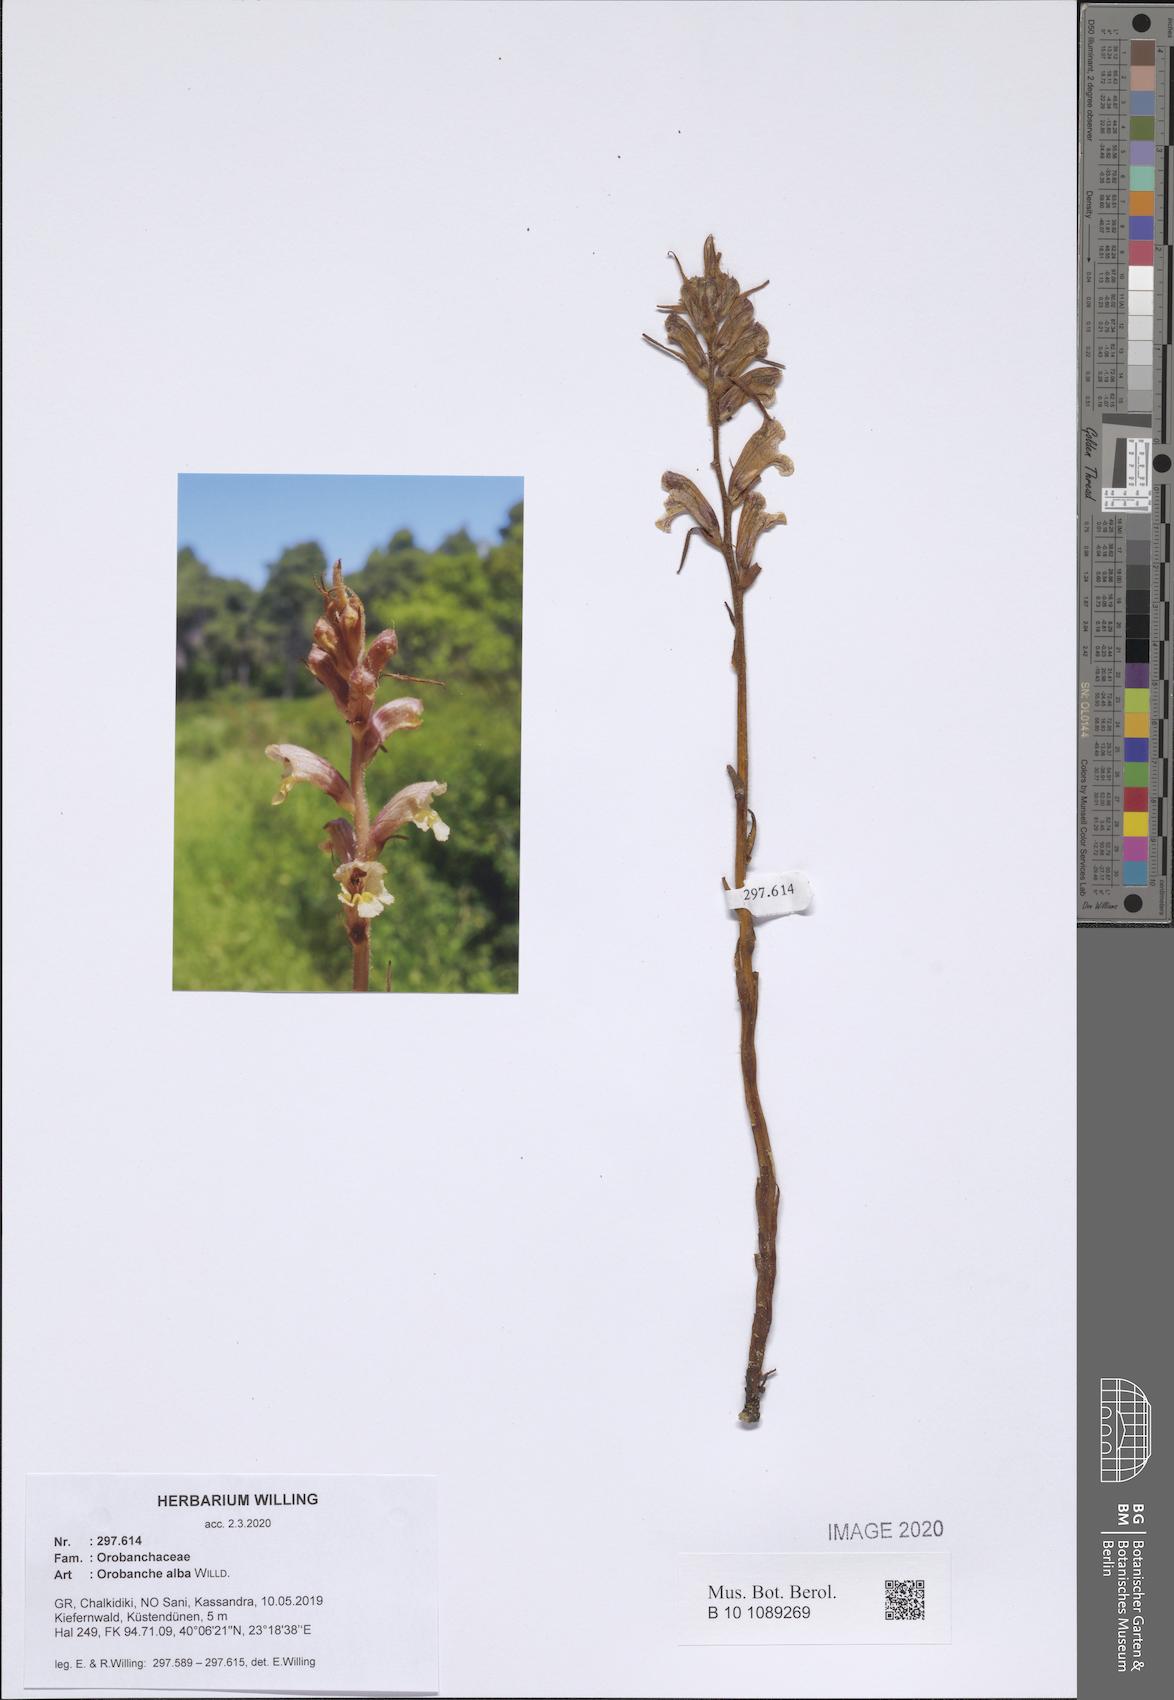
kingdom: Plantae
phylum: Tracheophyta
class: Magnoliopsida
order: Lamiales
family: Orobanchaceae
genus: Orobanche
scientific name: Orobanche alba
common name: Thyme broomrape
